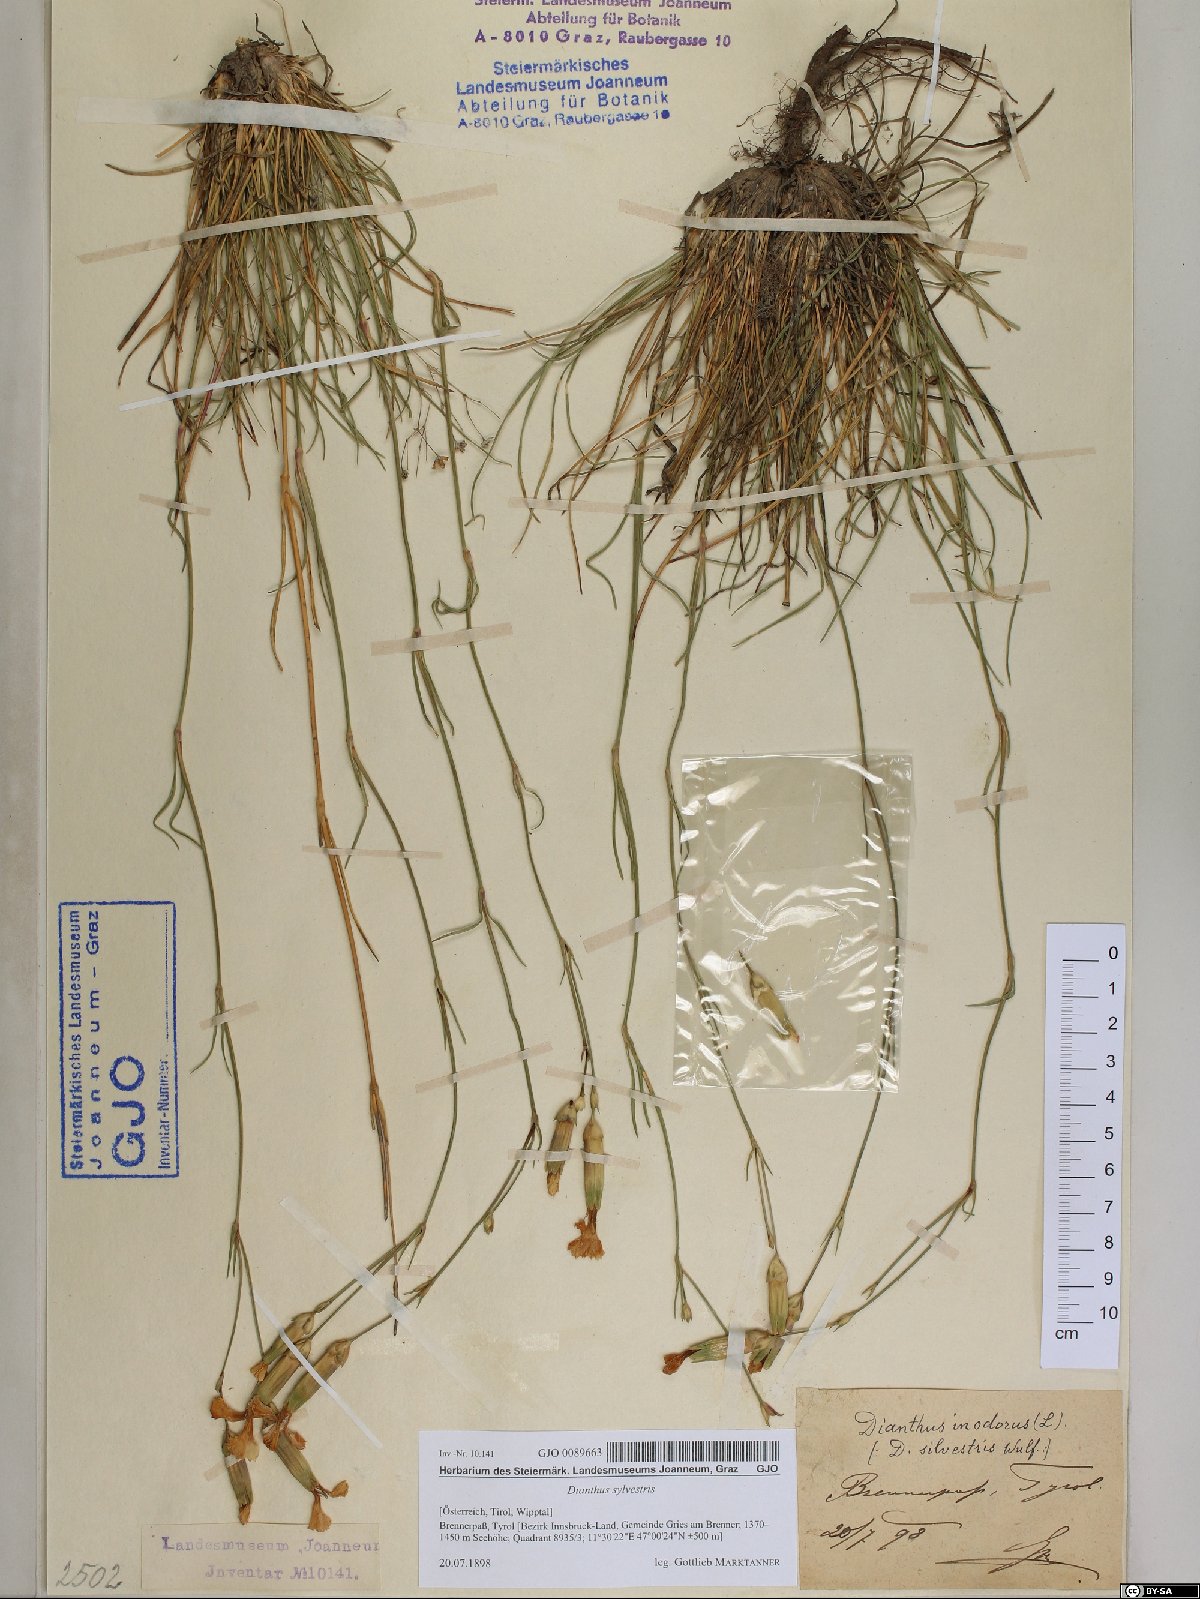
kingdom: Plantae
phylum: Tracheophyta
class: Magnoliopsida
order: Caryophyllales
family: Caryophyllaceae
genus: Dianthus
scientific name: Dianthus sylvestris
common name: Wood pink
